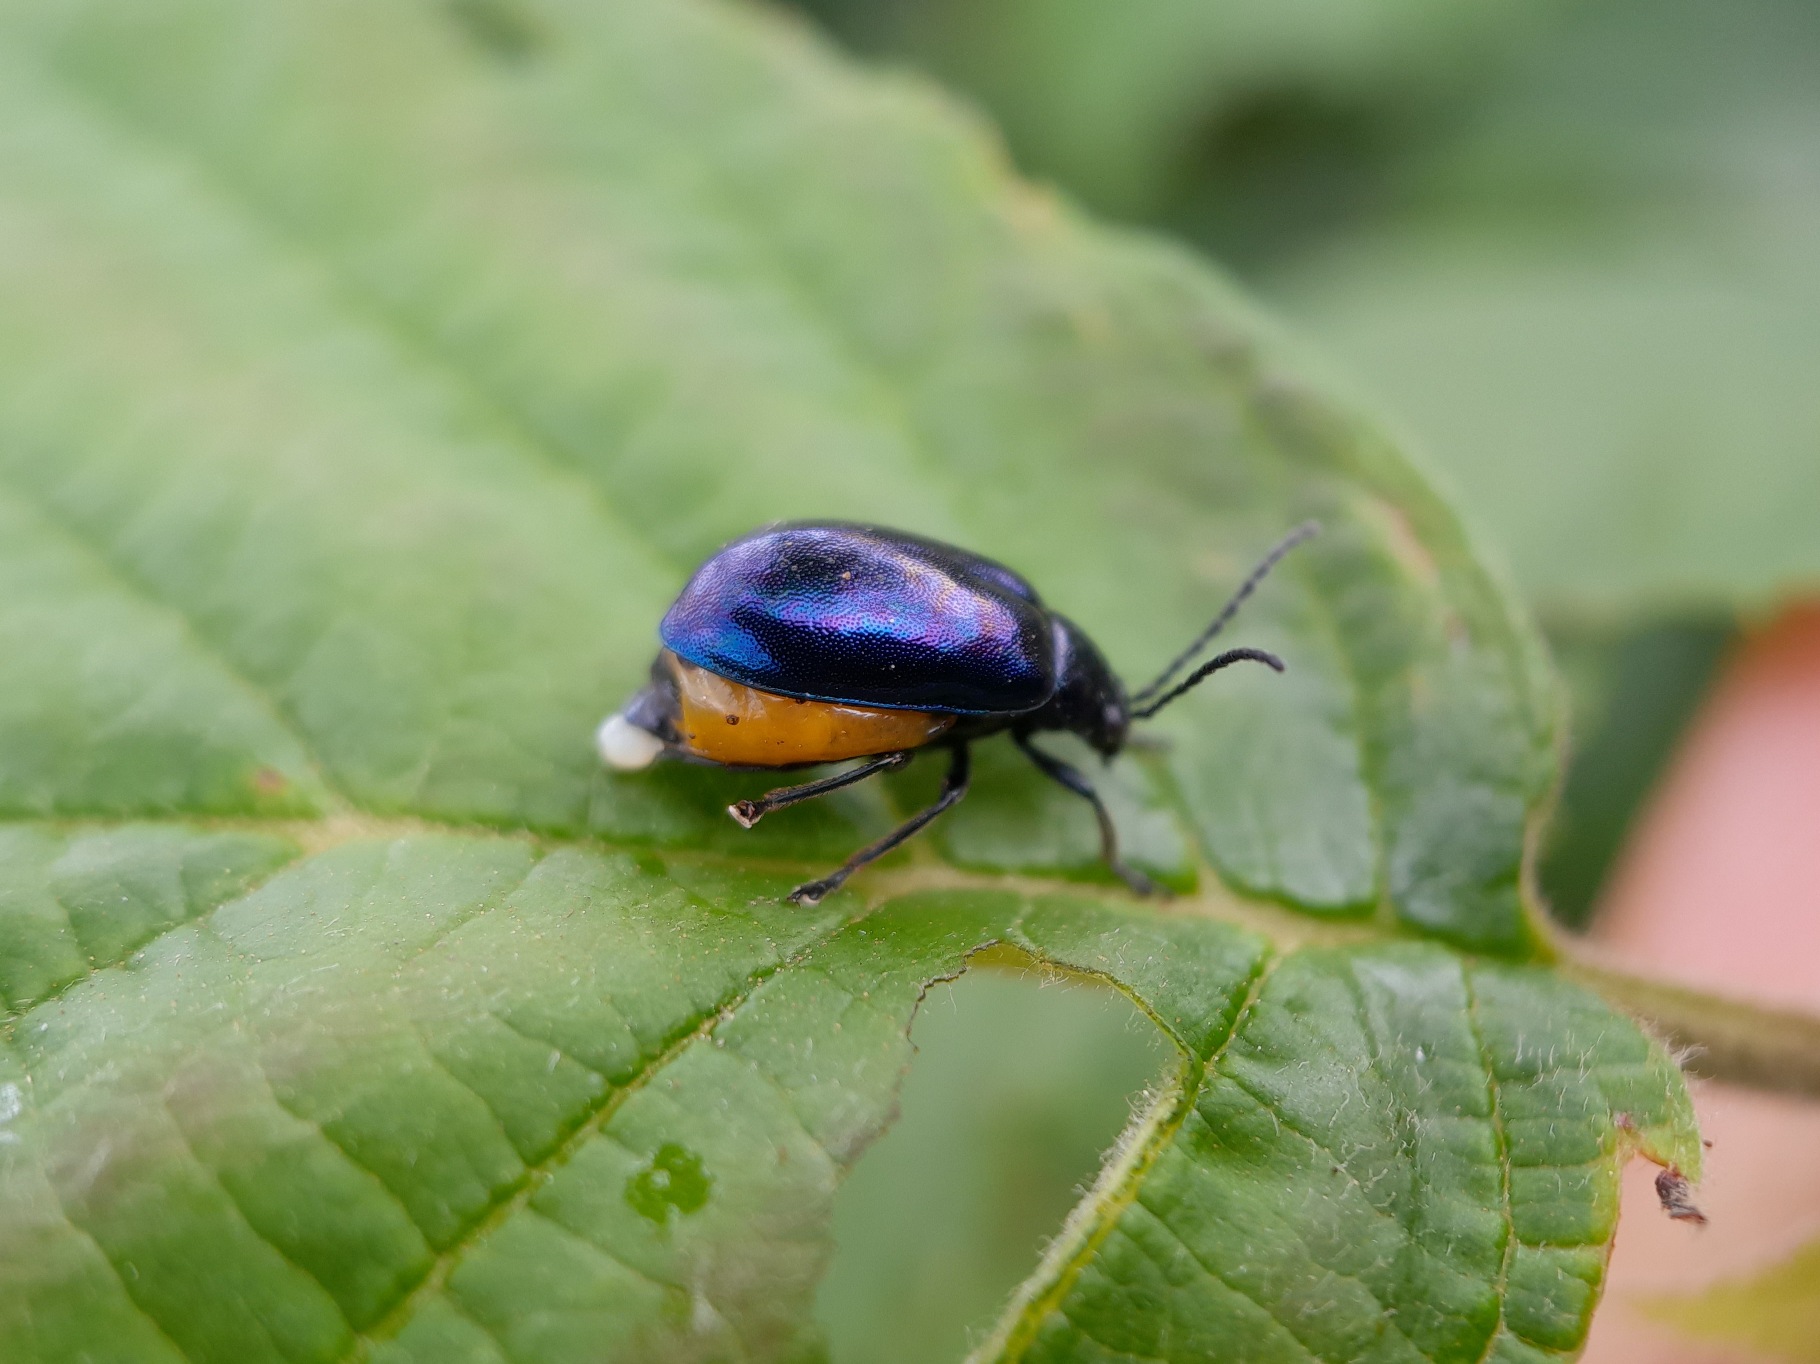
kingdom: Animalia
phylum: Arthropoda
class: Insecta
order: Coleoptera
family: Chrysomelidae
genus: Agelastica
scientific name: Agelastica alni
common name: Ellebladbille
